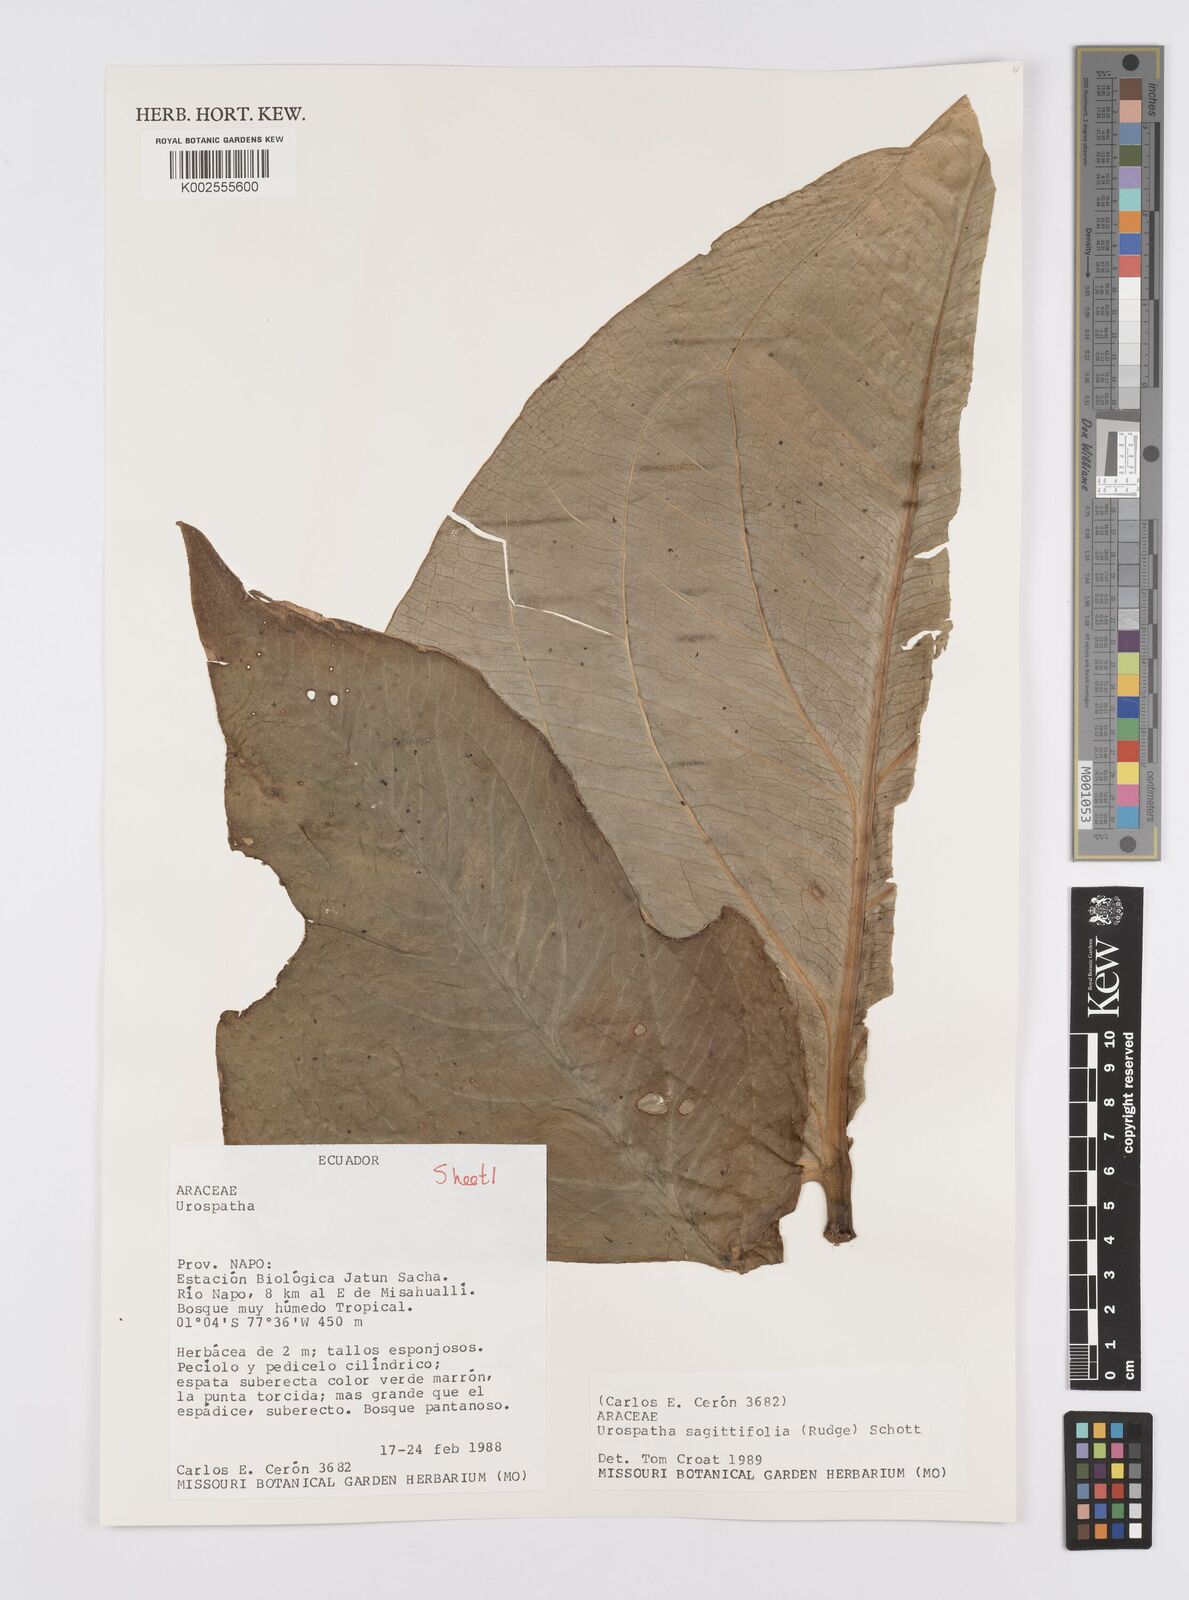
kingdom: Plantae
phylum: Tracheophyta
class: Liliopsida
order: Alismatales
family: Araceae
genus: Urospatha
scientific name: Urospatha sagittifolia
